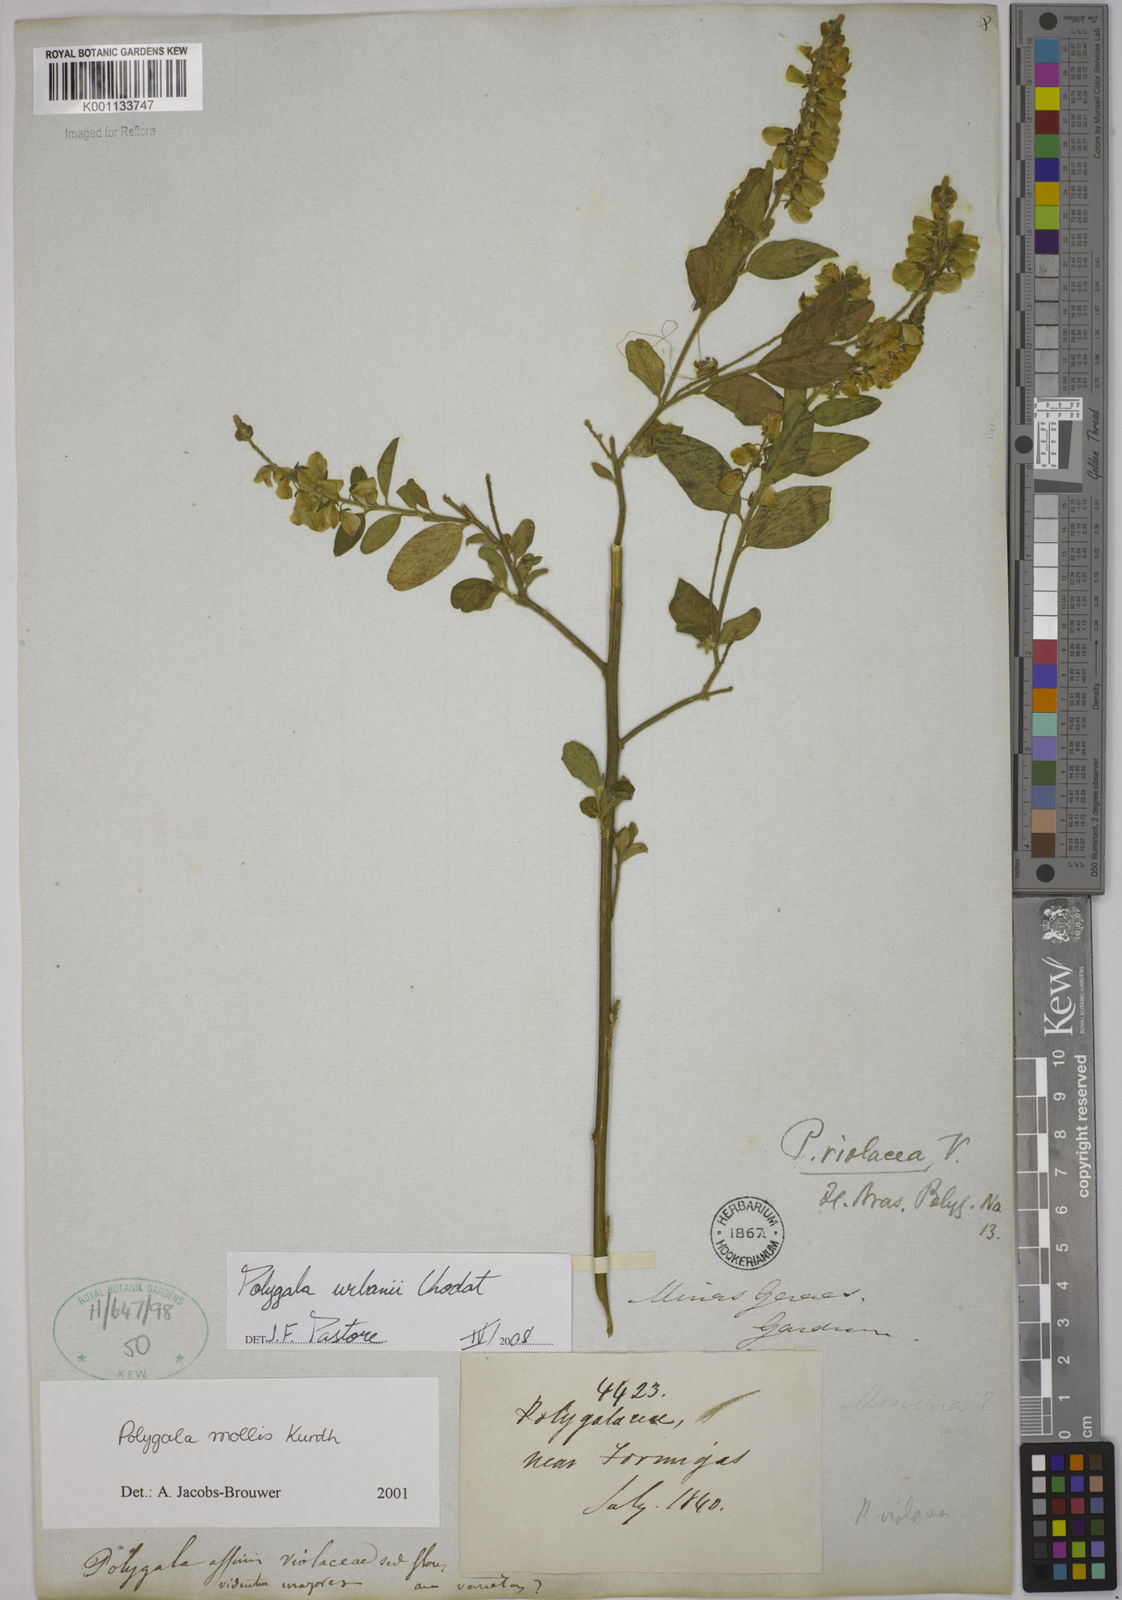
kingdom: Plantae
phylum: Tracheophyta
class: Magnoliopsida
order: Fabales
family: Polygalaceae
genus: Asemeia
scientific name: Asemeia monninoides
